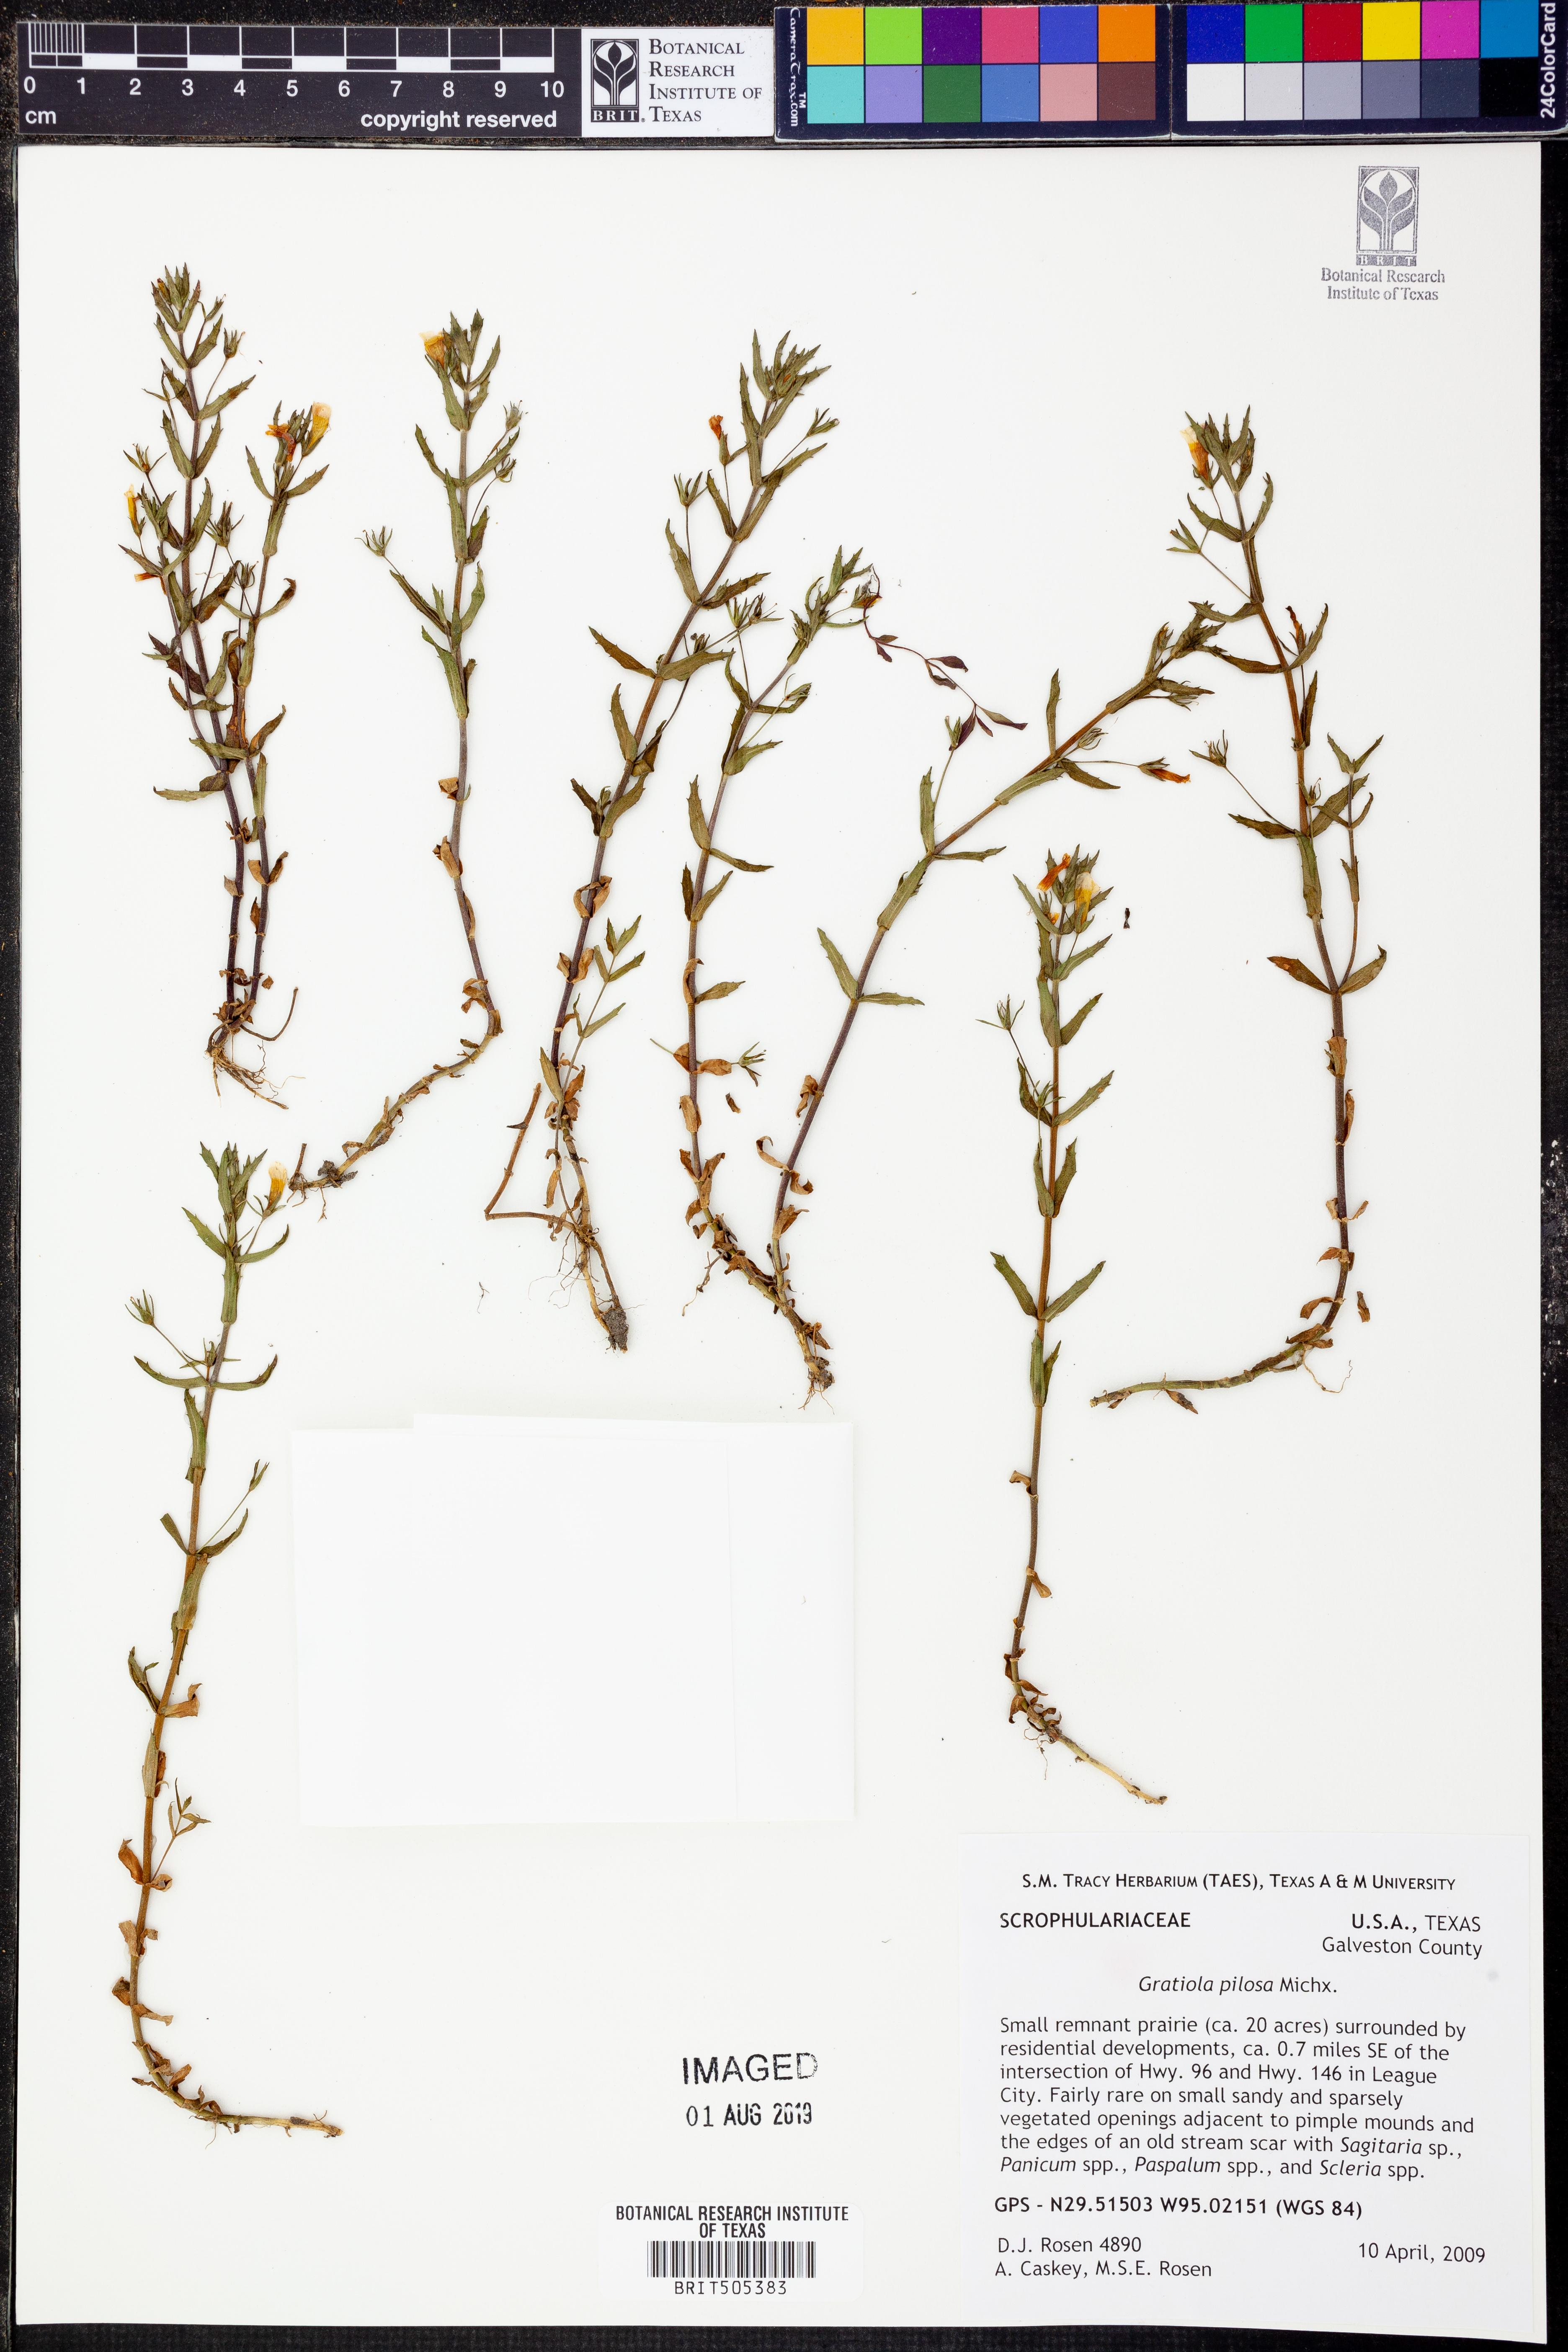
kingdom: Plantae
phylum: Tracheophyta
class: Magnoliopsida
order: Lamiales
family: Plantaginaceae
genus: Gratiola
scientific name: Gratiola pilosa
